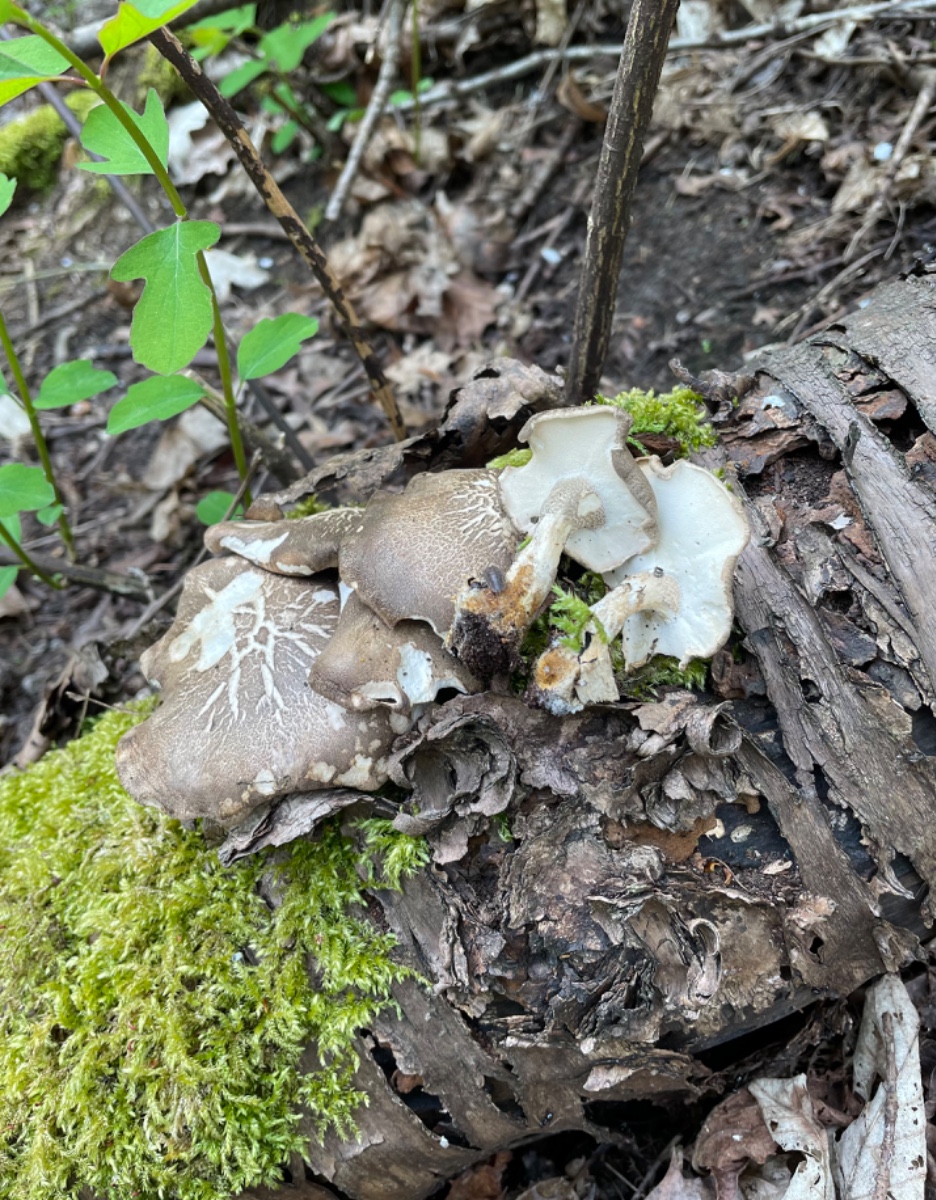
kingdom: Fungi
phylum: Basidiomycota
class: Agaricomycetes
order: Polyporales
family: Polyporaceae
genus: Lentinus
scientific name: Lentinus substrictus
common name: forårs-stilkporesvamp
